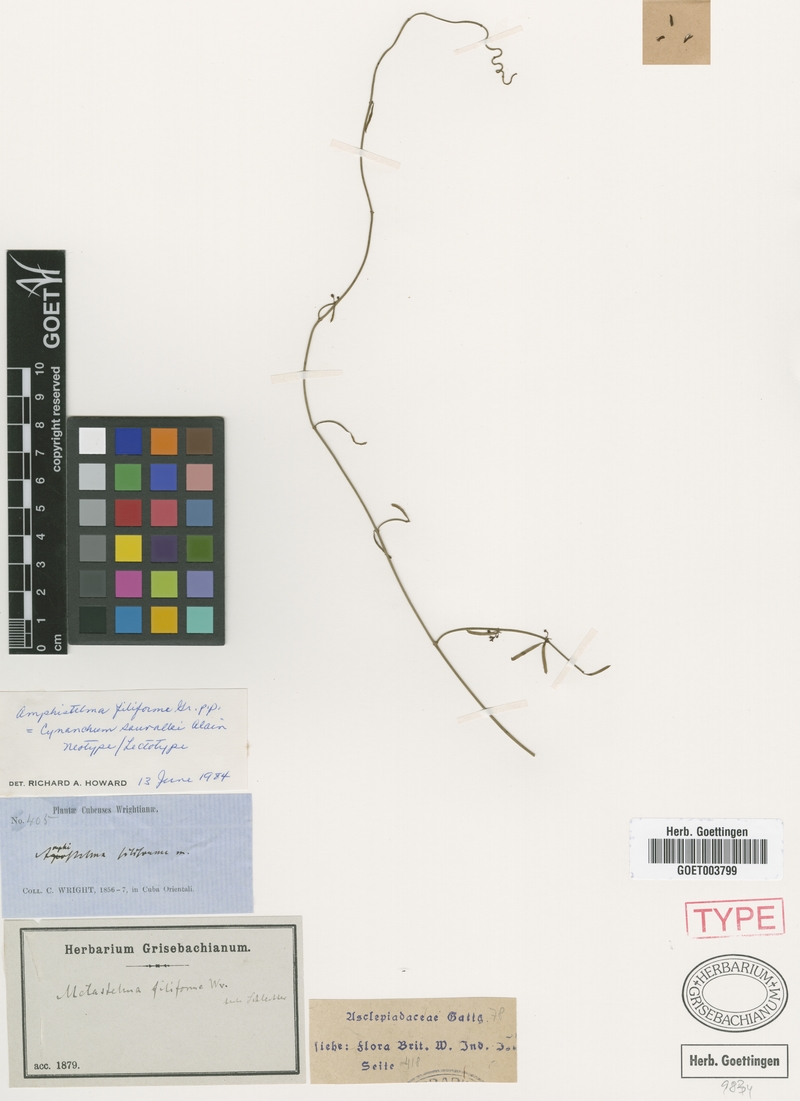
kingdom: Plantae
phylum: Tracheophyta
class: Magnoliopsida
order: Gentianales
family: Apocynaceae
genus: Orthosia
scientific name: Orthosia scoparia
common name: Leafless swallow-wort
